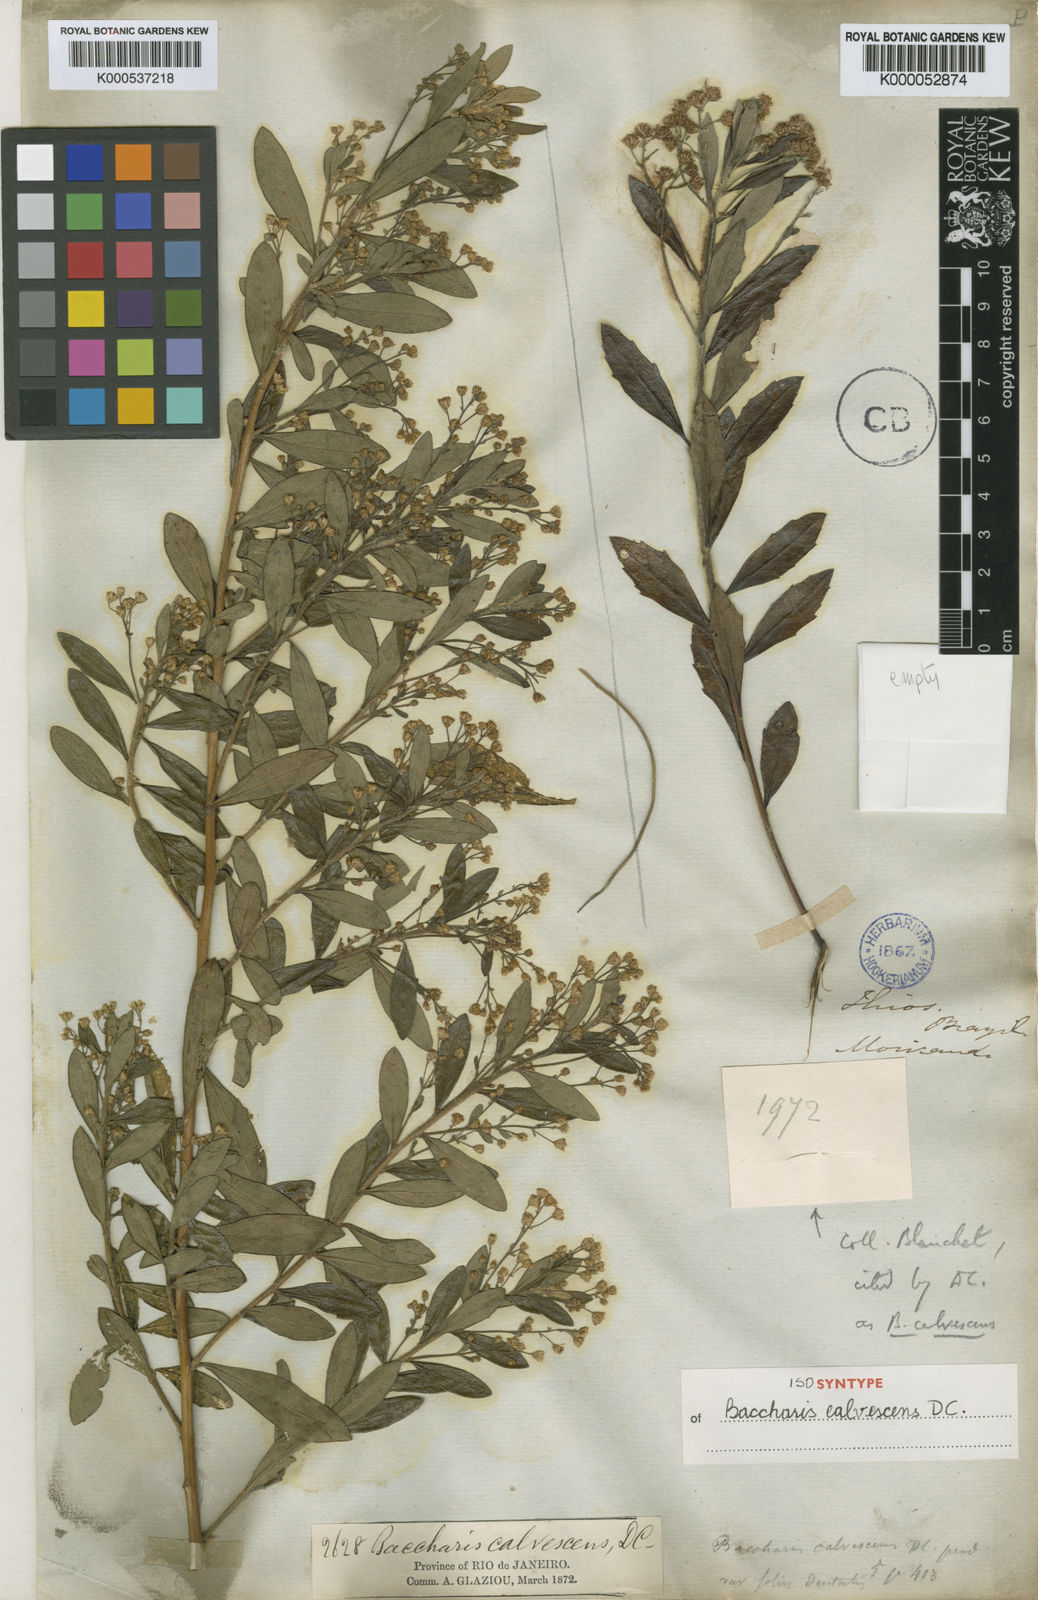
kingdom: Plantae
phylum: Tracheophyta
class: Magnoliopsida
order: Asterales
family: Asteraceae
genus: Baccharis
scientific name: Baccharis calvescens
